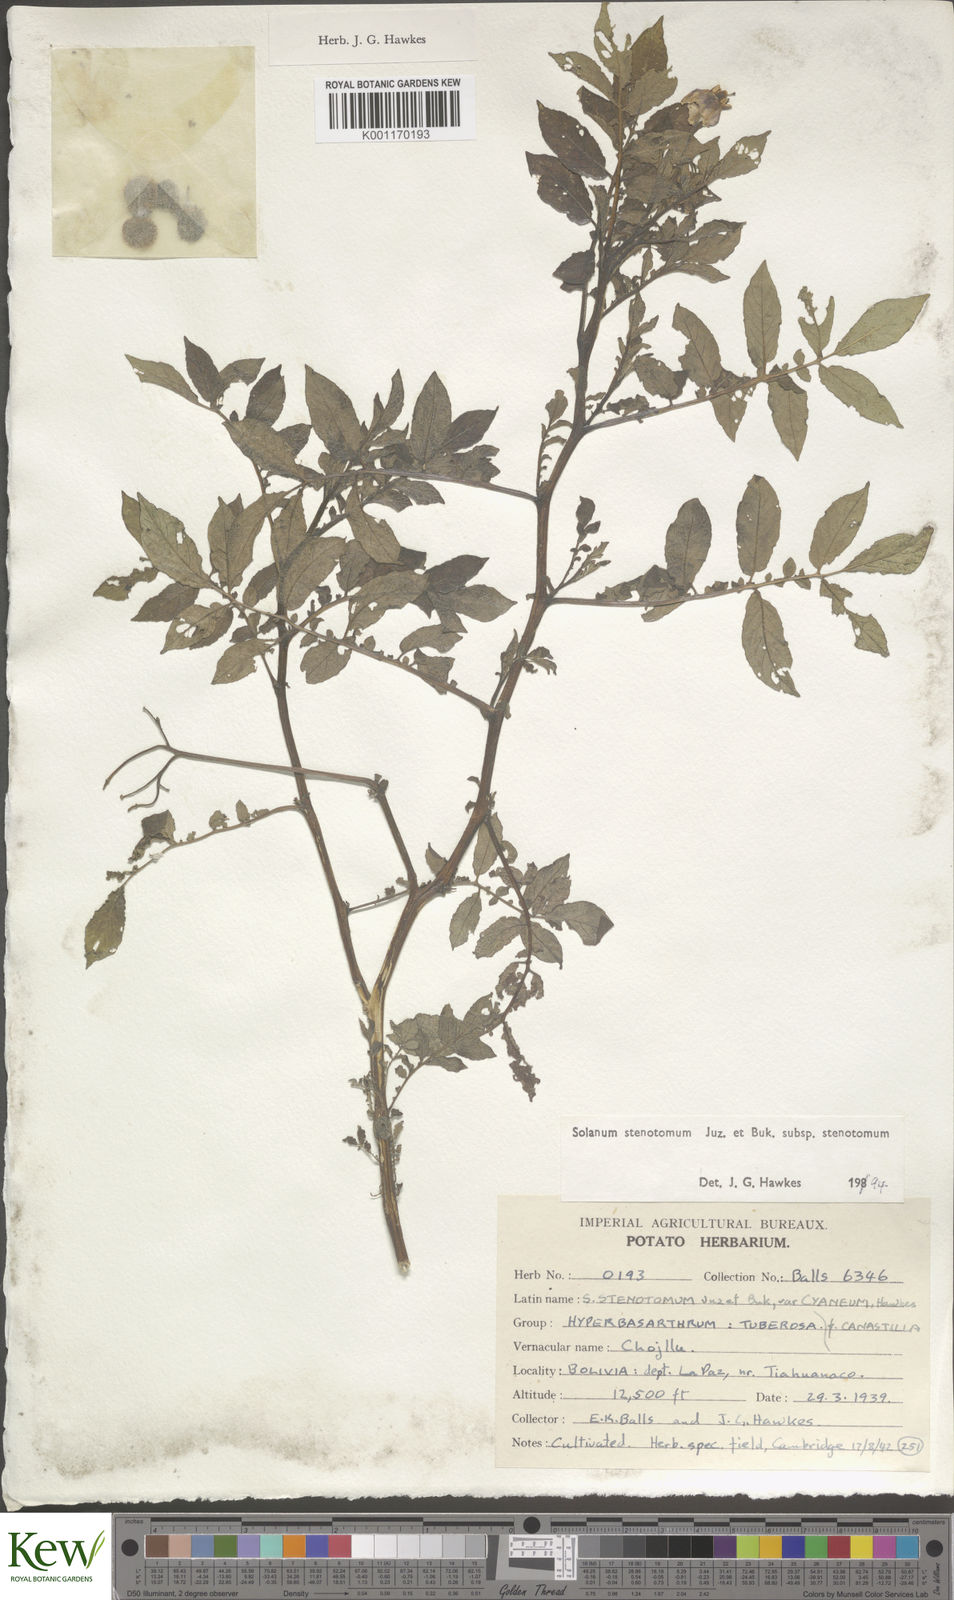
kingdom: Plantae
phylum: Tracheophyta
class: Magnoliopsida
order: Solanales
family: Solanaceae
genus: Solanum
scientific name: Solanum tuberosum
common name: Potato
